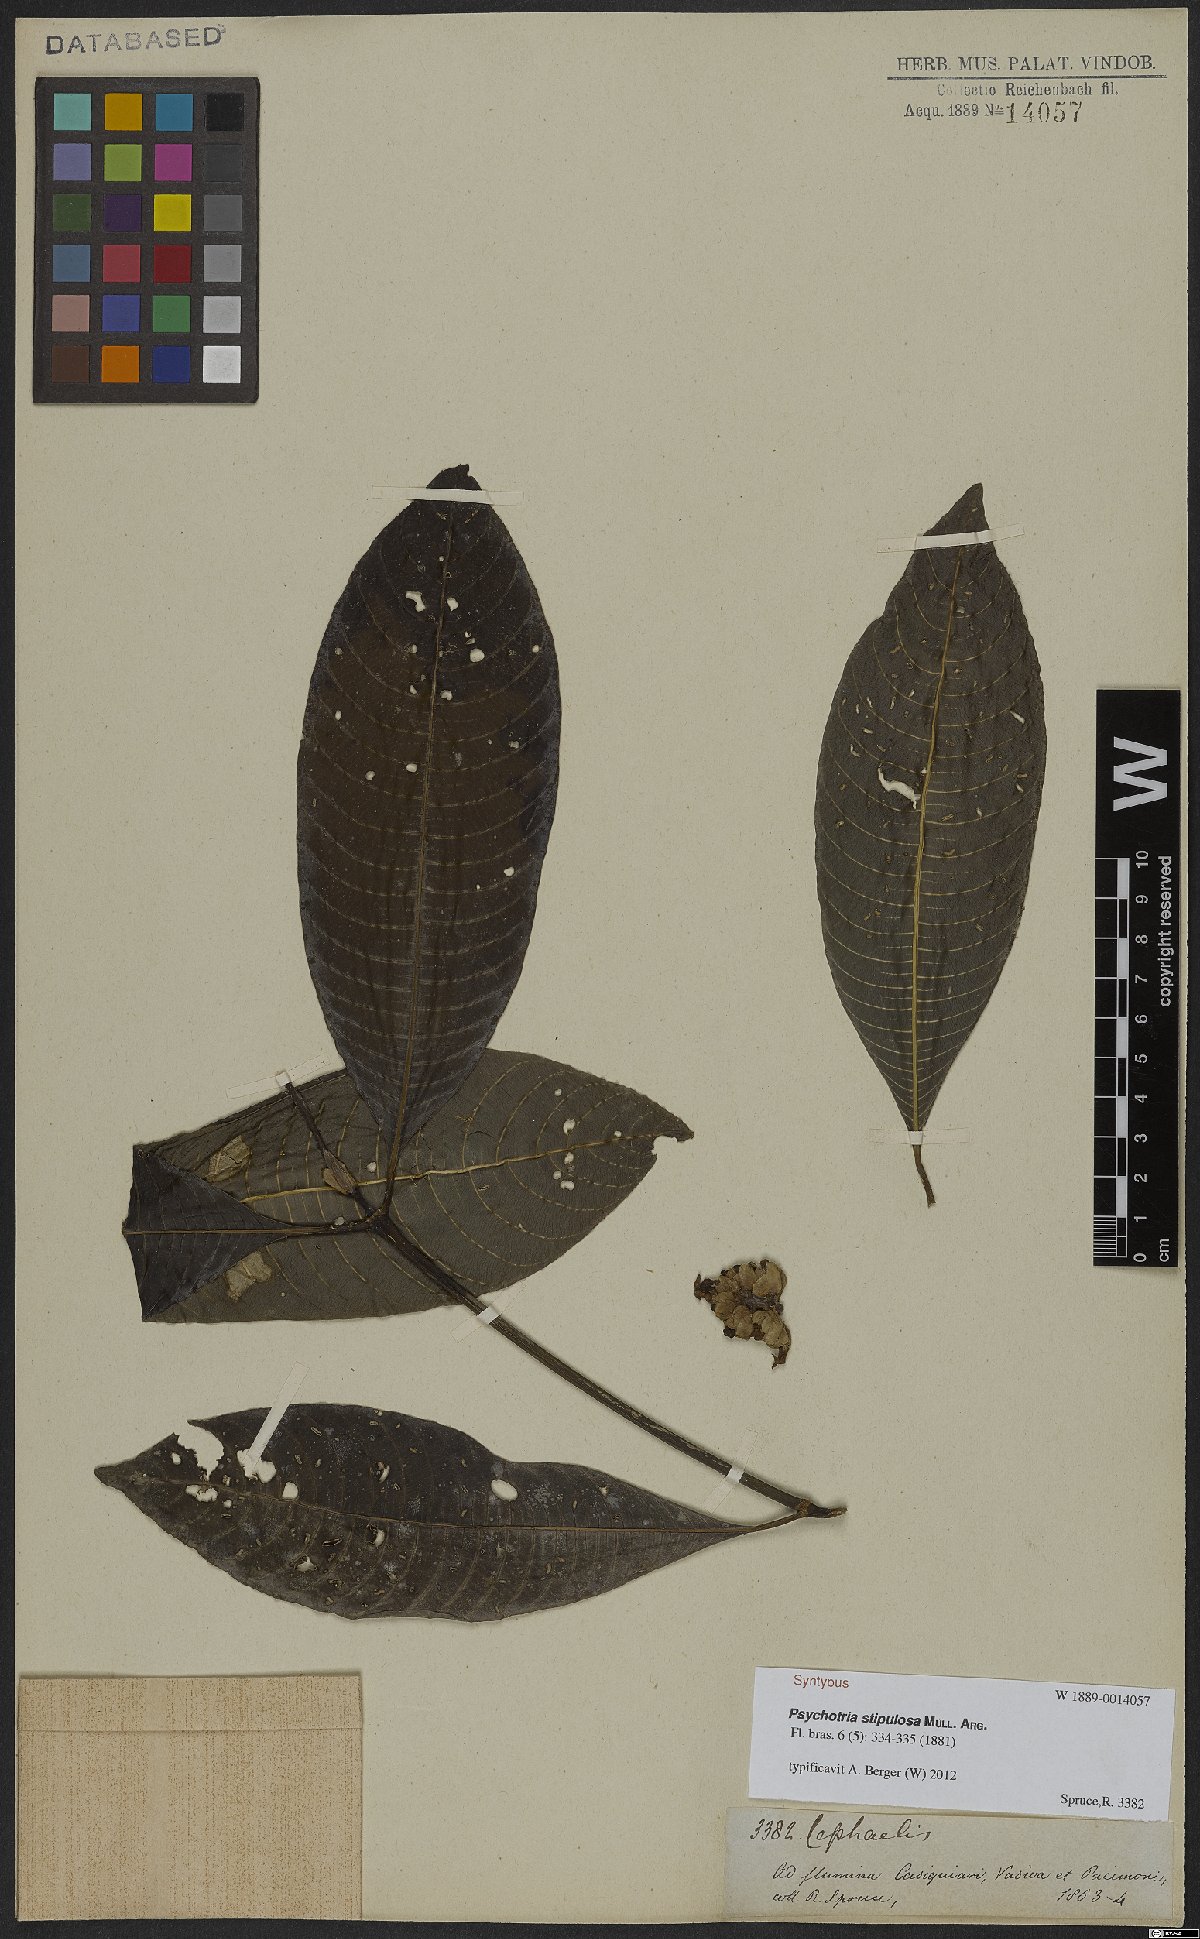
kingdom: Plantae
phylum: Tracheophyta
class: Magnoliopsida
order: Gentianales
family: Rubiaceae
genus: Palicourea
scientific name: Palicourea stipulosa
